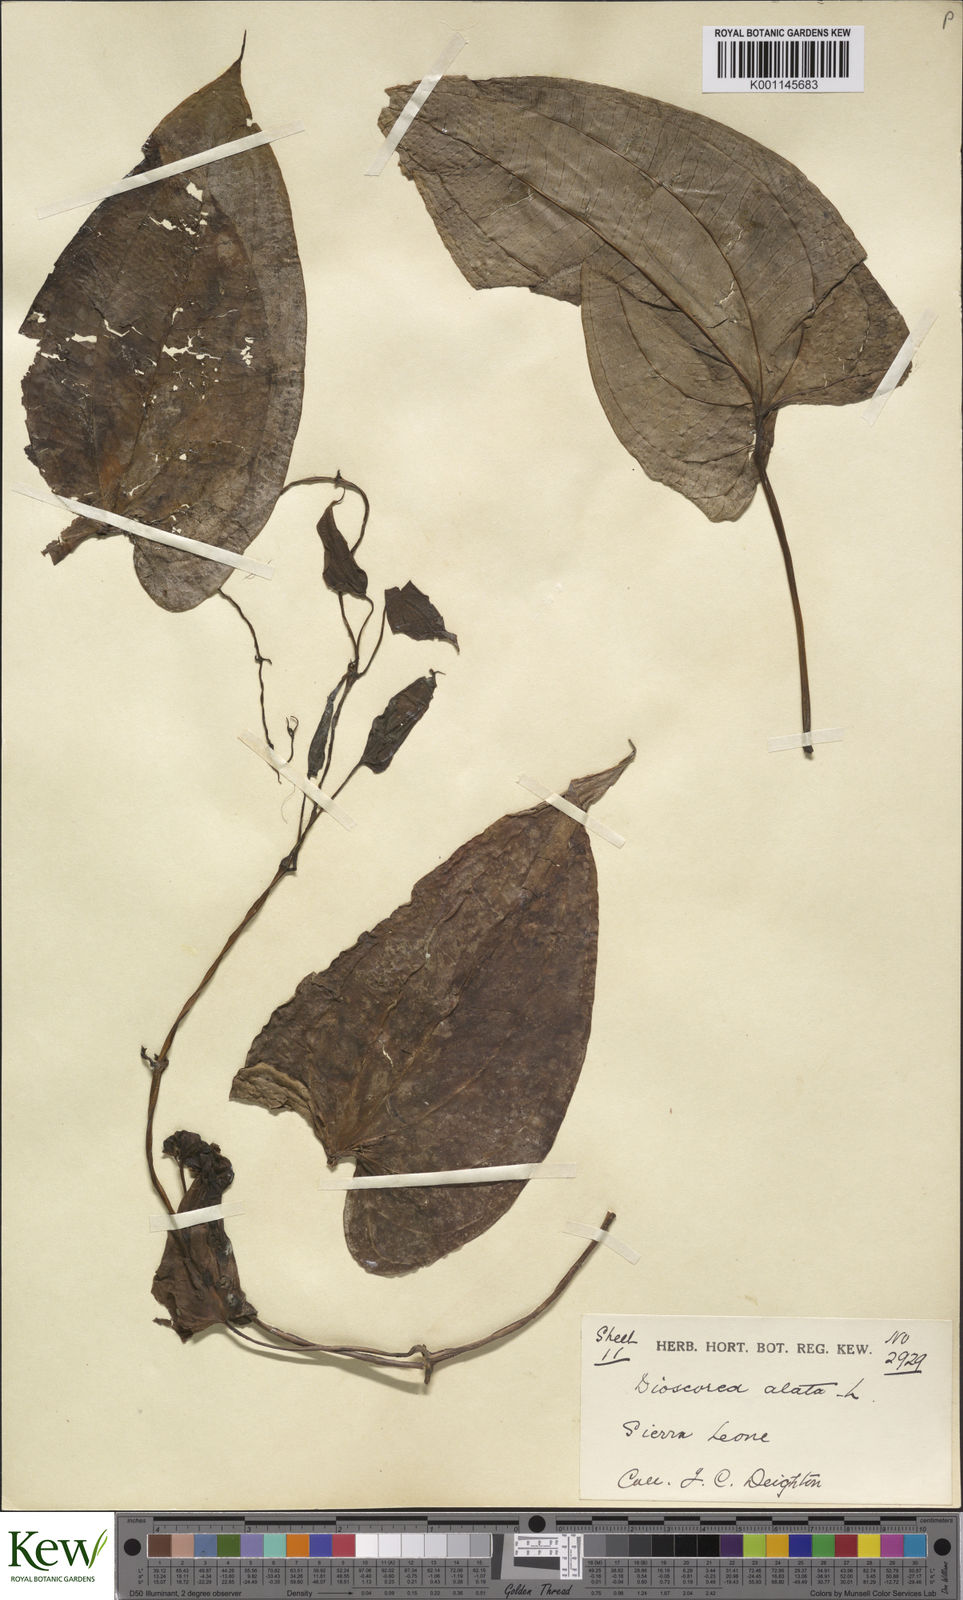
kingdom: Plantae
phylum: Tracheophyta
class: Liliopsida
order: Dioscoreales
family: Dioscoreaceae
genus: Dioscorea
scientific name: Dioscorea alata
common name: Water yam
